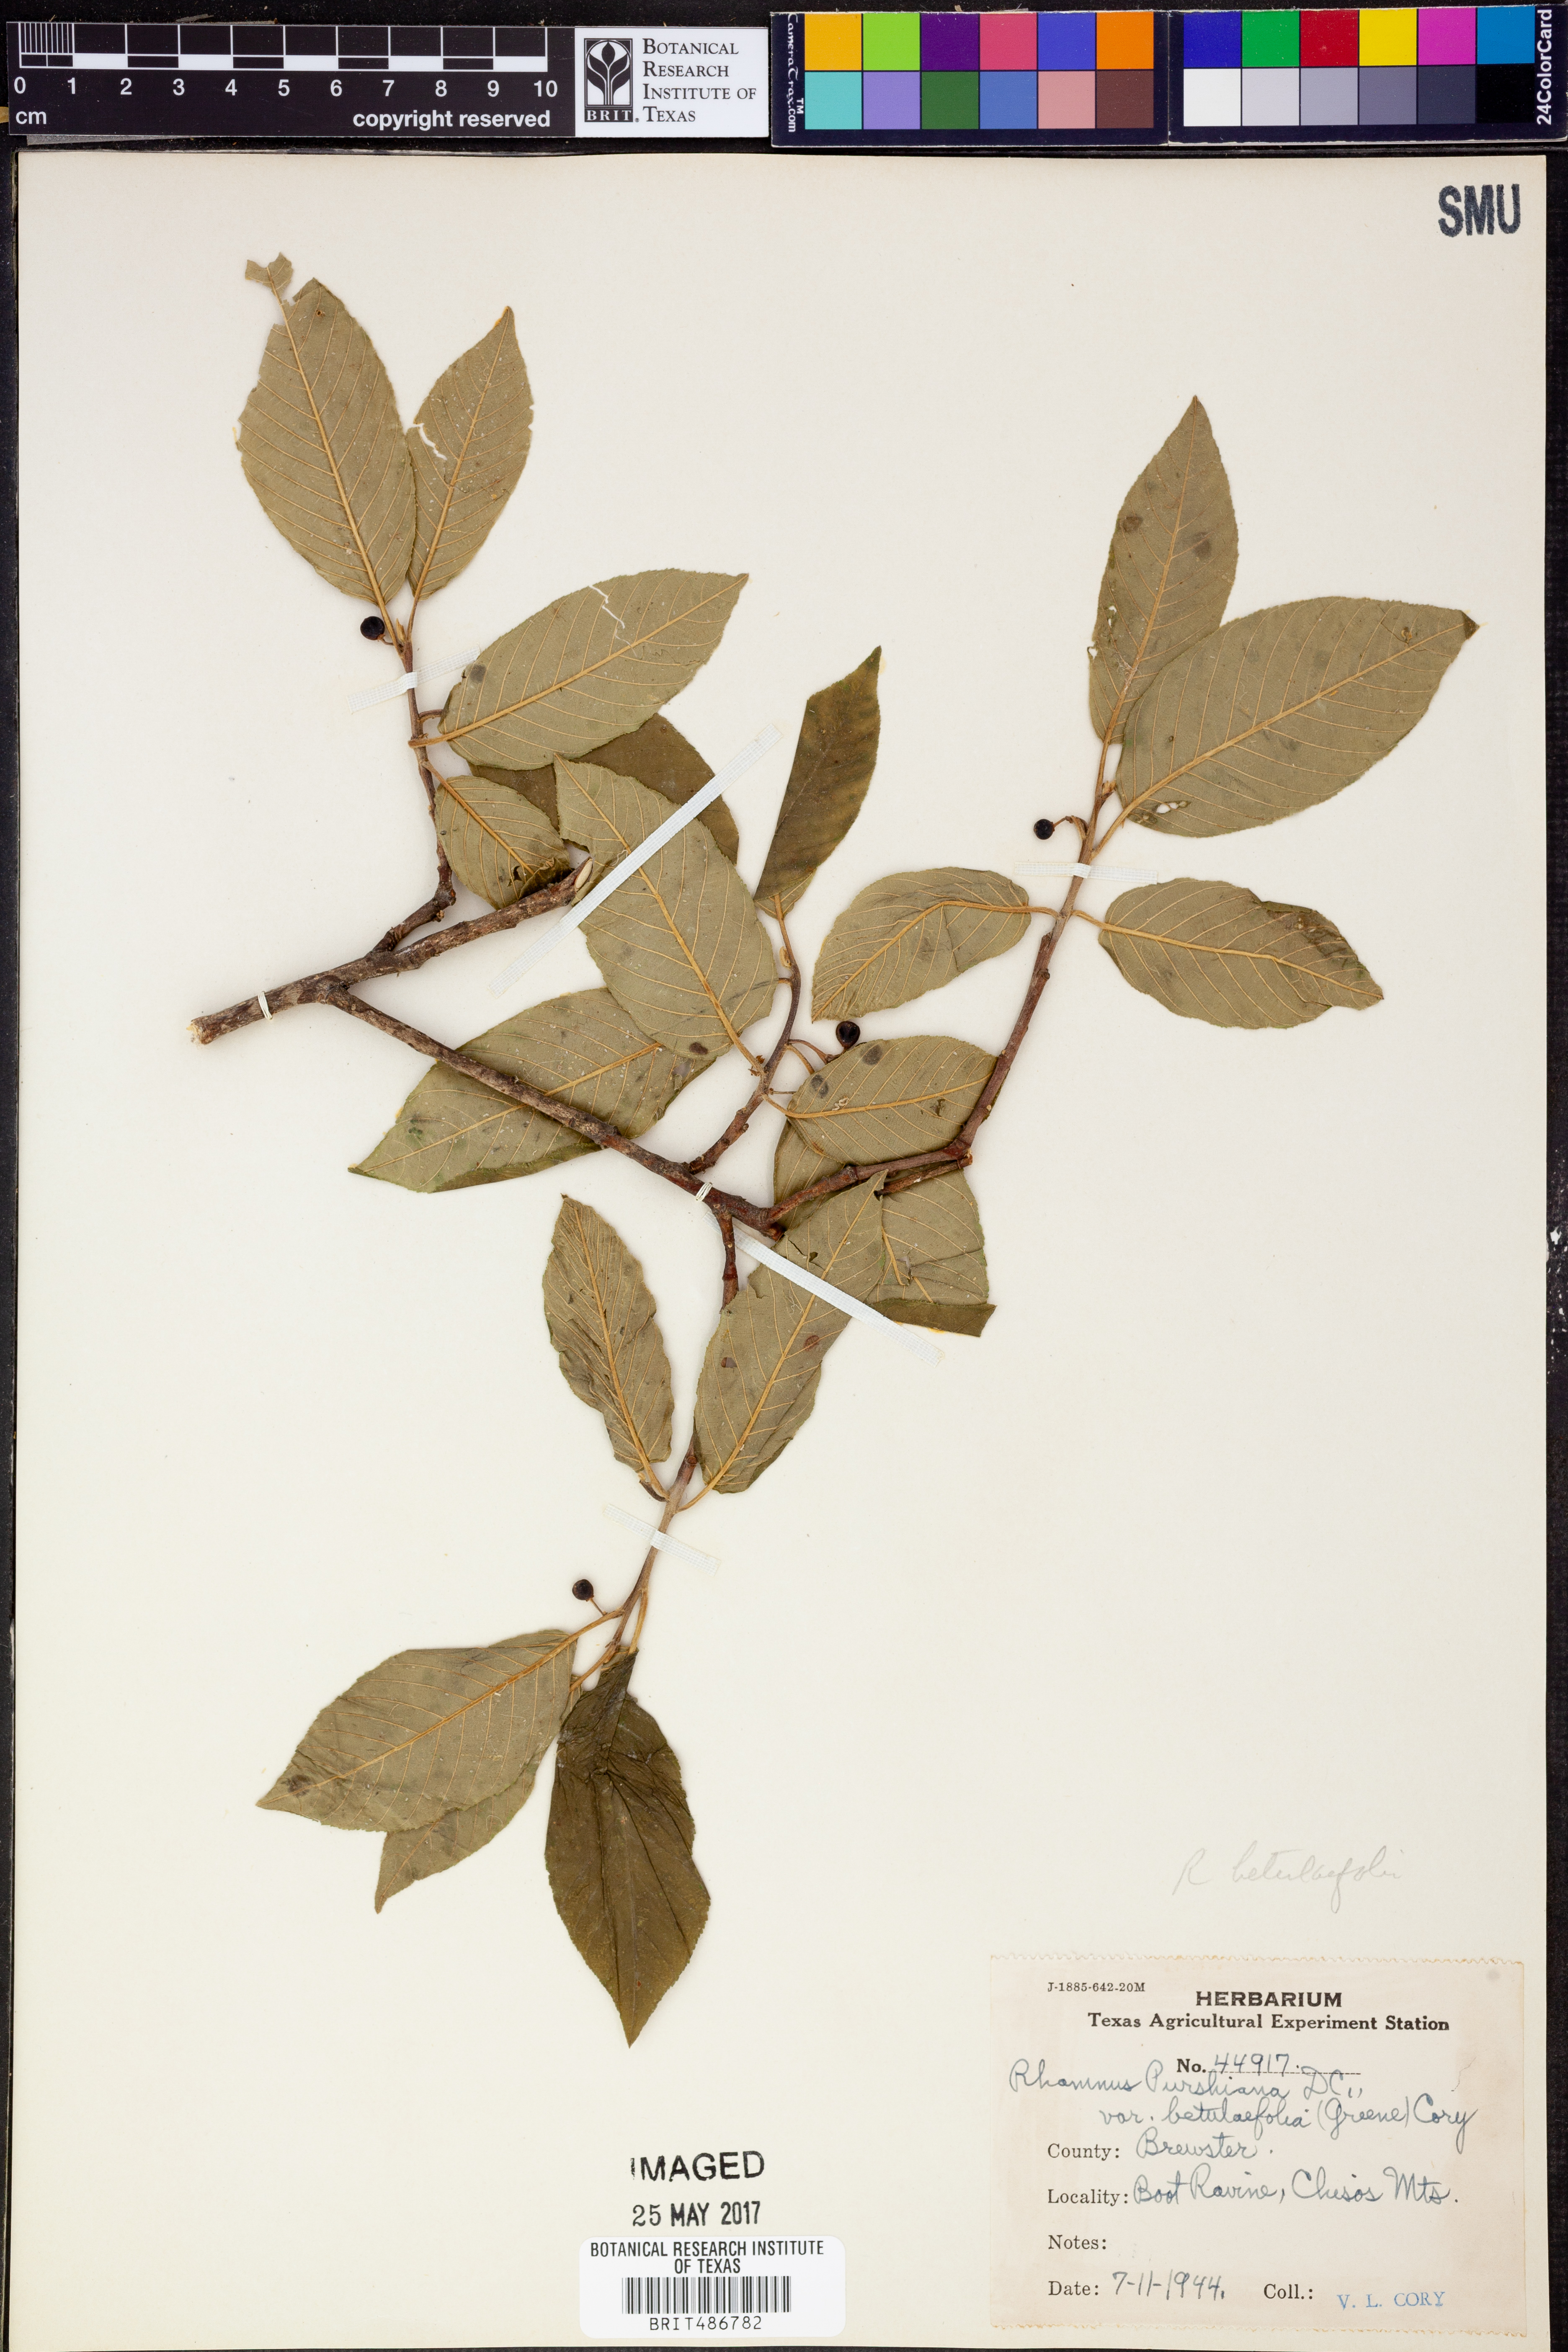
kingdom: Plantae
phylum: Tracheophyta
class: Magnoliopsida
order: Rosales
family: Rhamnaceae
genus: Frangula
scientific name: Frangula betulifolia
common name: Birch-leaf buckthorn
